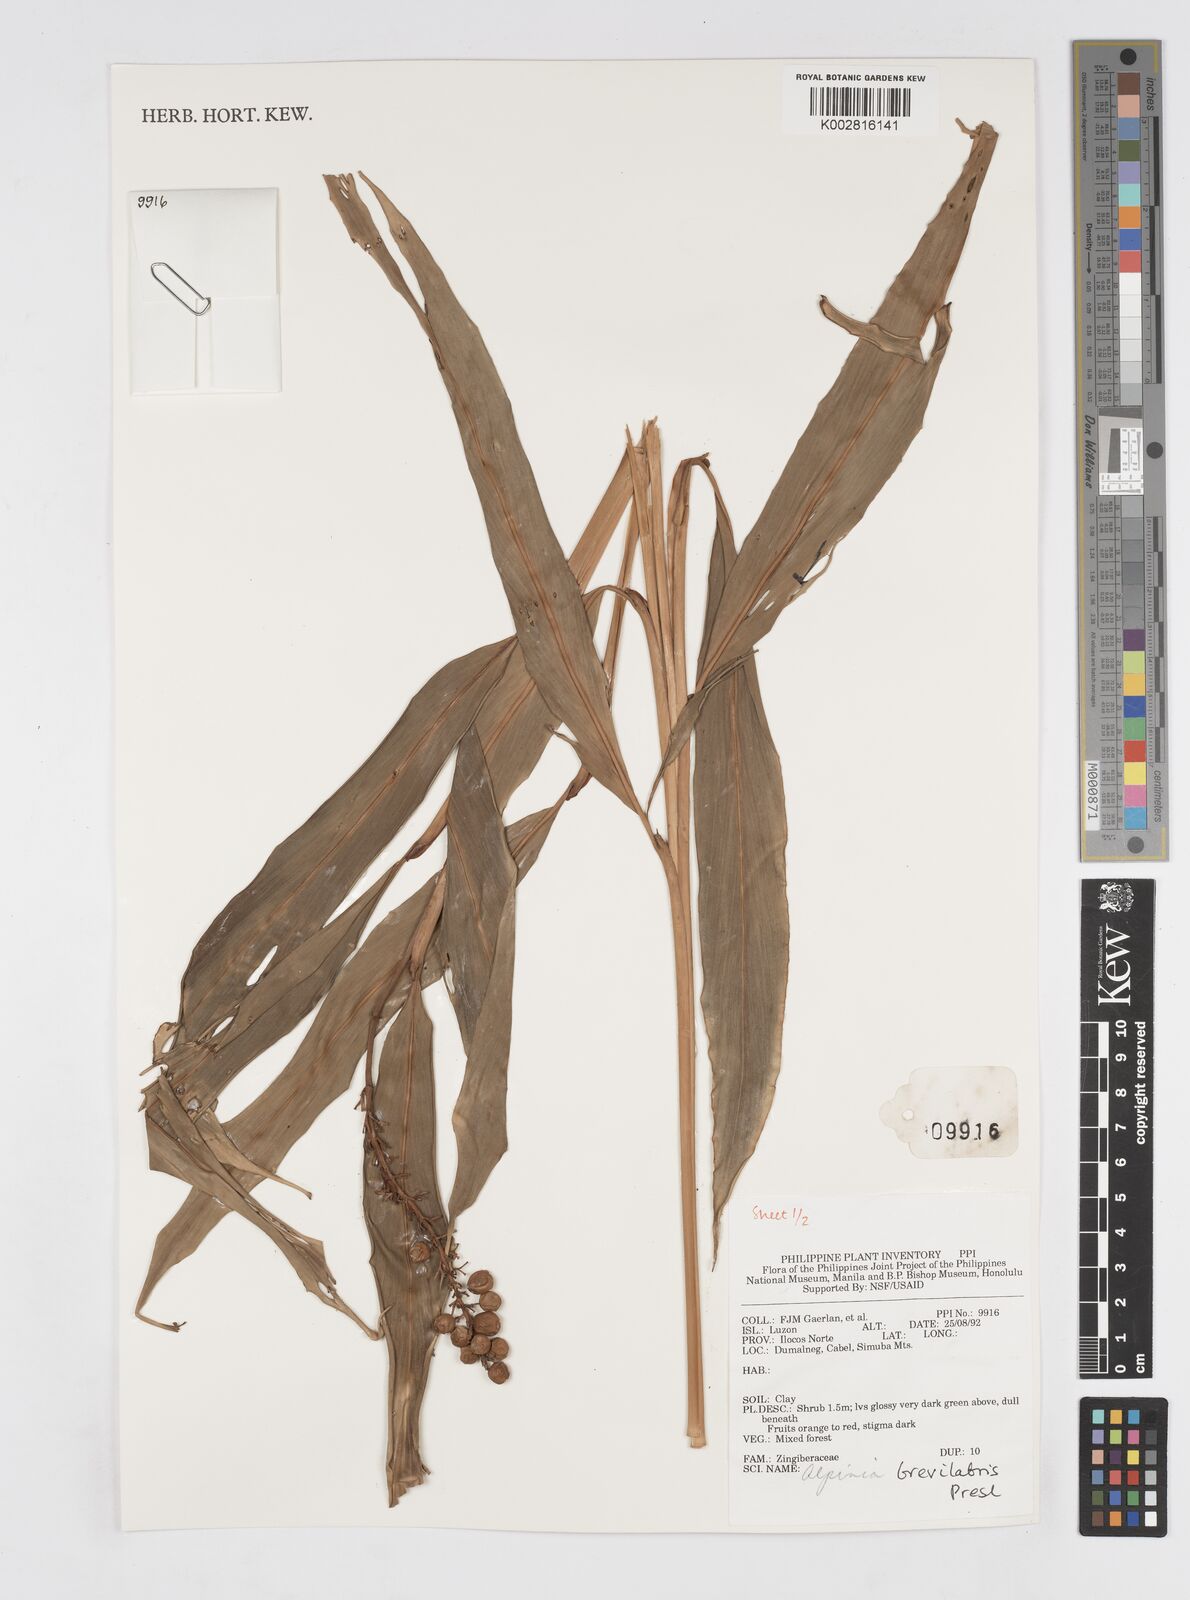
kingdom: Plantae
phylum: Tracheophyta
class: Liliopsida
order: Zingiberales
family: Zingiberaceae
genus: Alpinia
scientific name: Alpinia brevilabris
